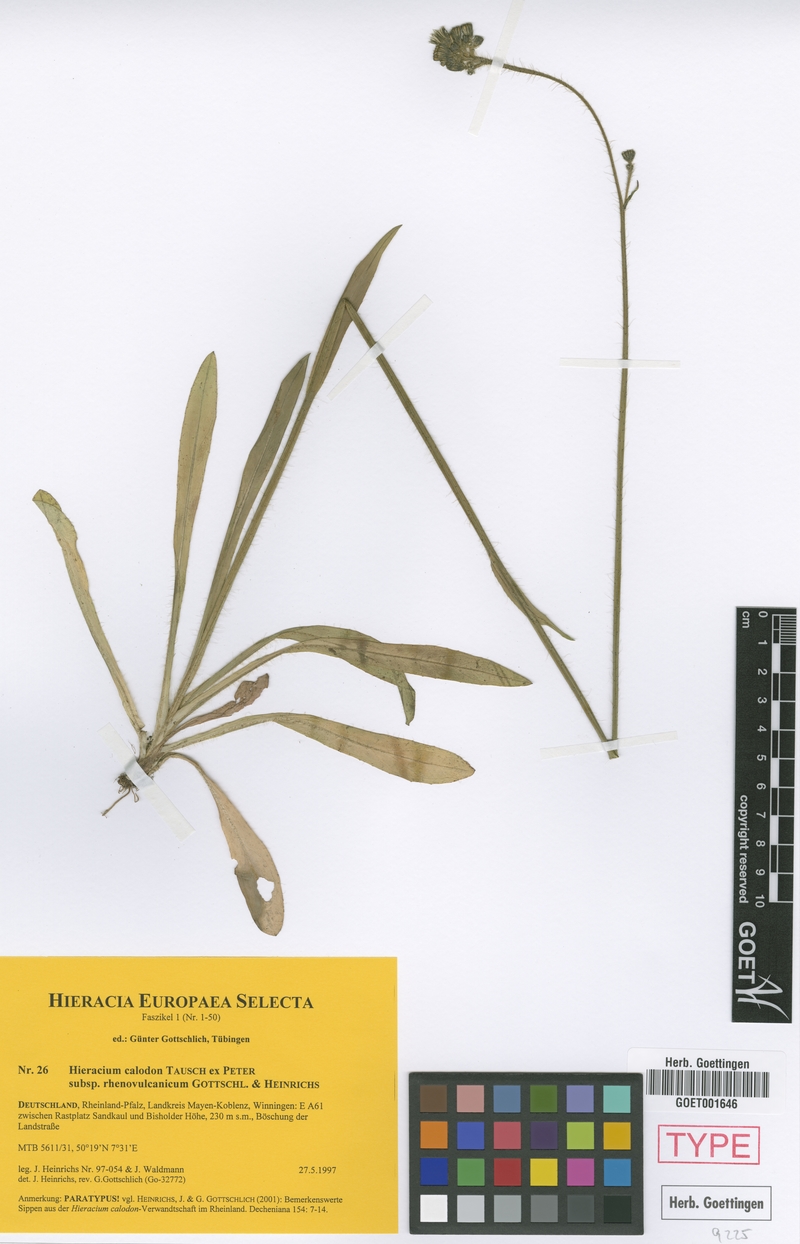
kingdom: Plantae
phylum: Tracheophyta
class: Magnoliopsida
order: Asterales
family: Asteraceae
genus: Pilosella
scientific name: Pilosella calodon
